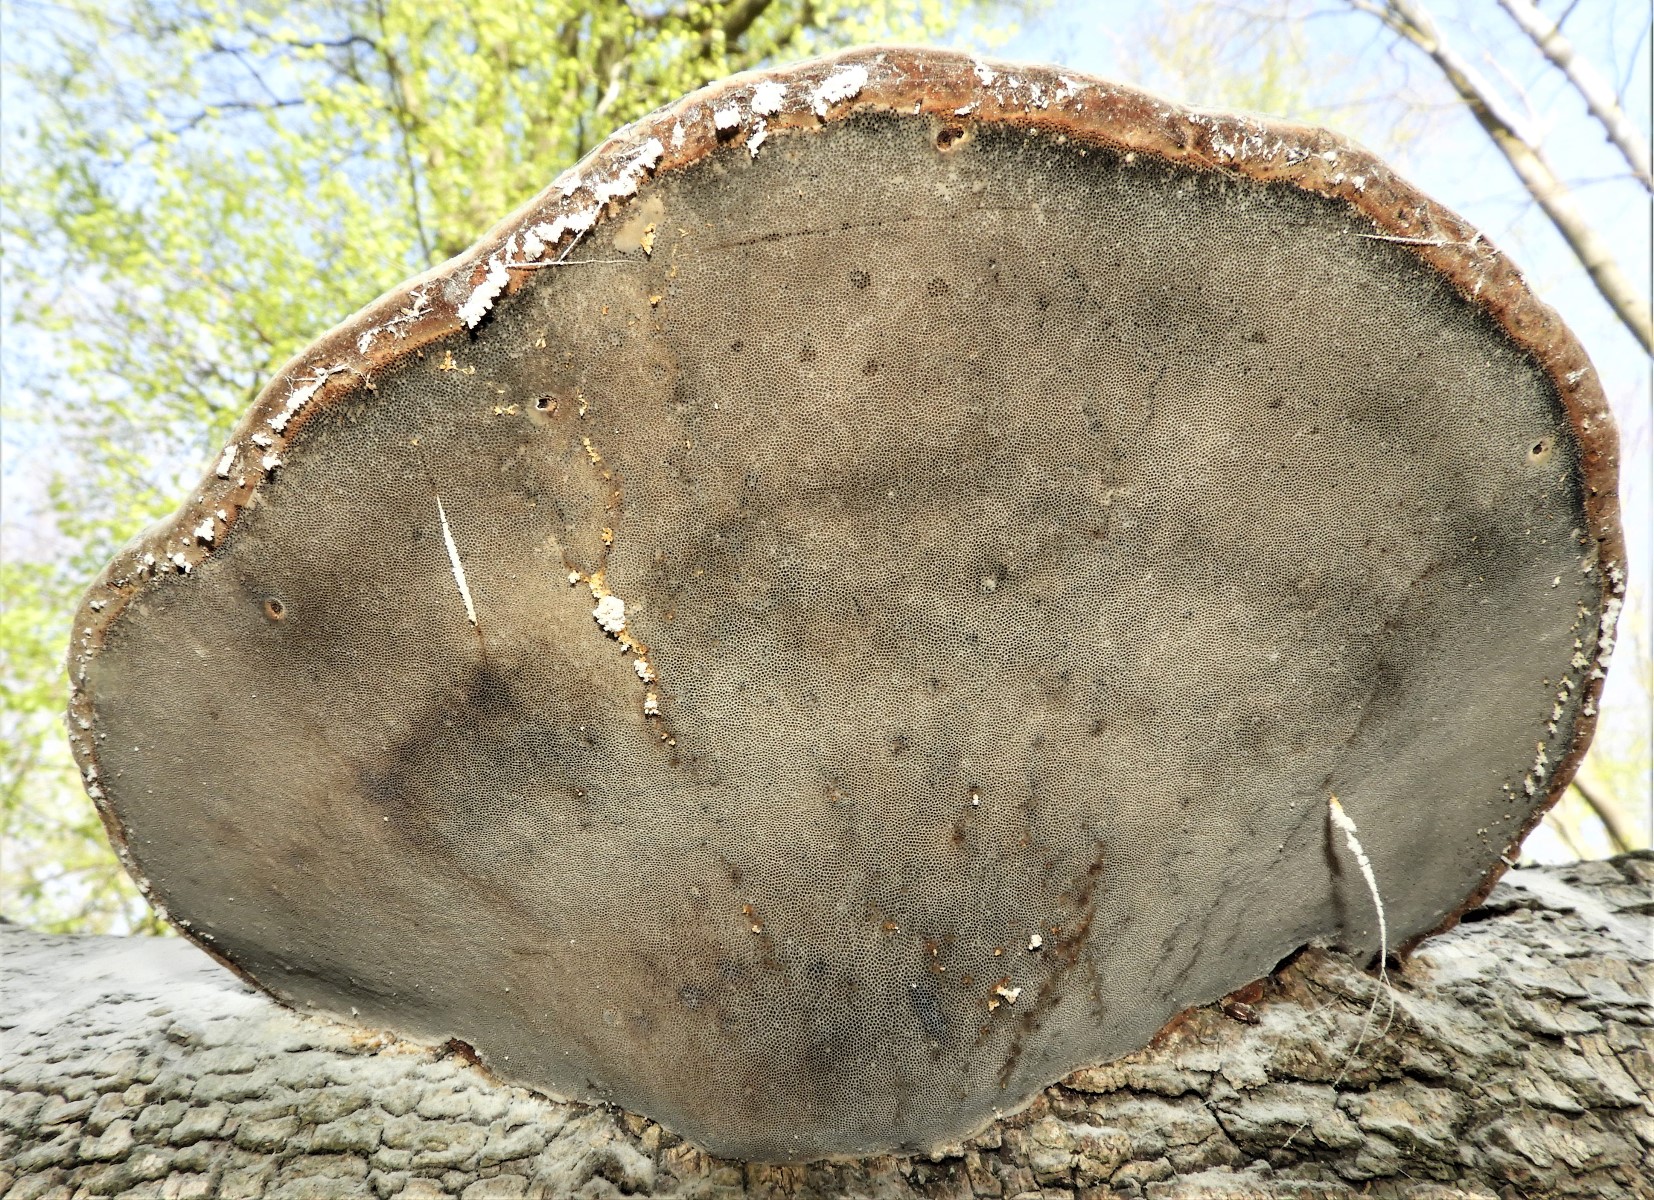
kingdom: Fungi
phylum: Basidiomycota
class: Agaricomycetes
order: Polyporales
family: Polyporaceae
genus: Fomes
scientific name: Fomes fomentarius
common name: tøndersvamp
